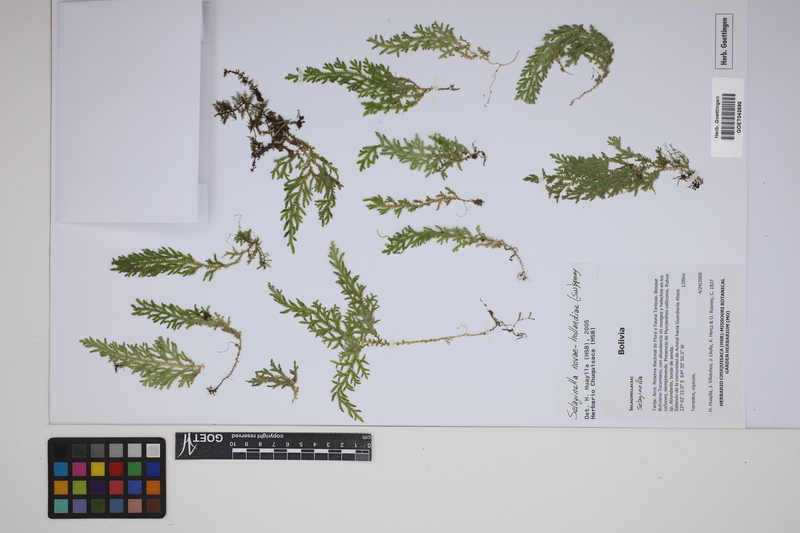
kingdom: Plantae
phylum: Tracheophyta
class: Lycopodiopsida
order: Selaginellales
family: Selaginellaceae
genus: Selaginella
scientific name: Selaginella novae-hollandiae
